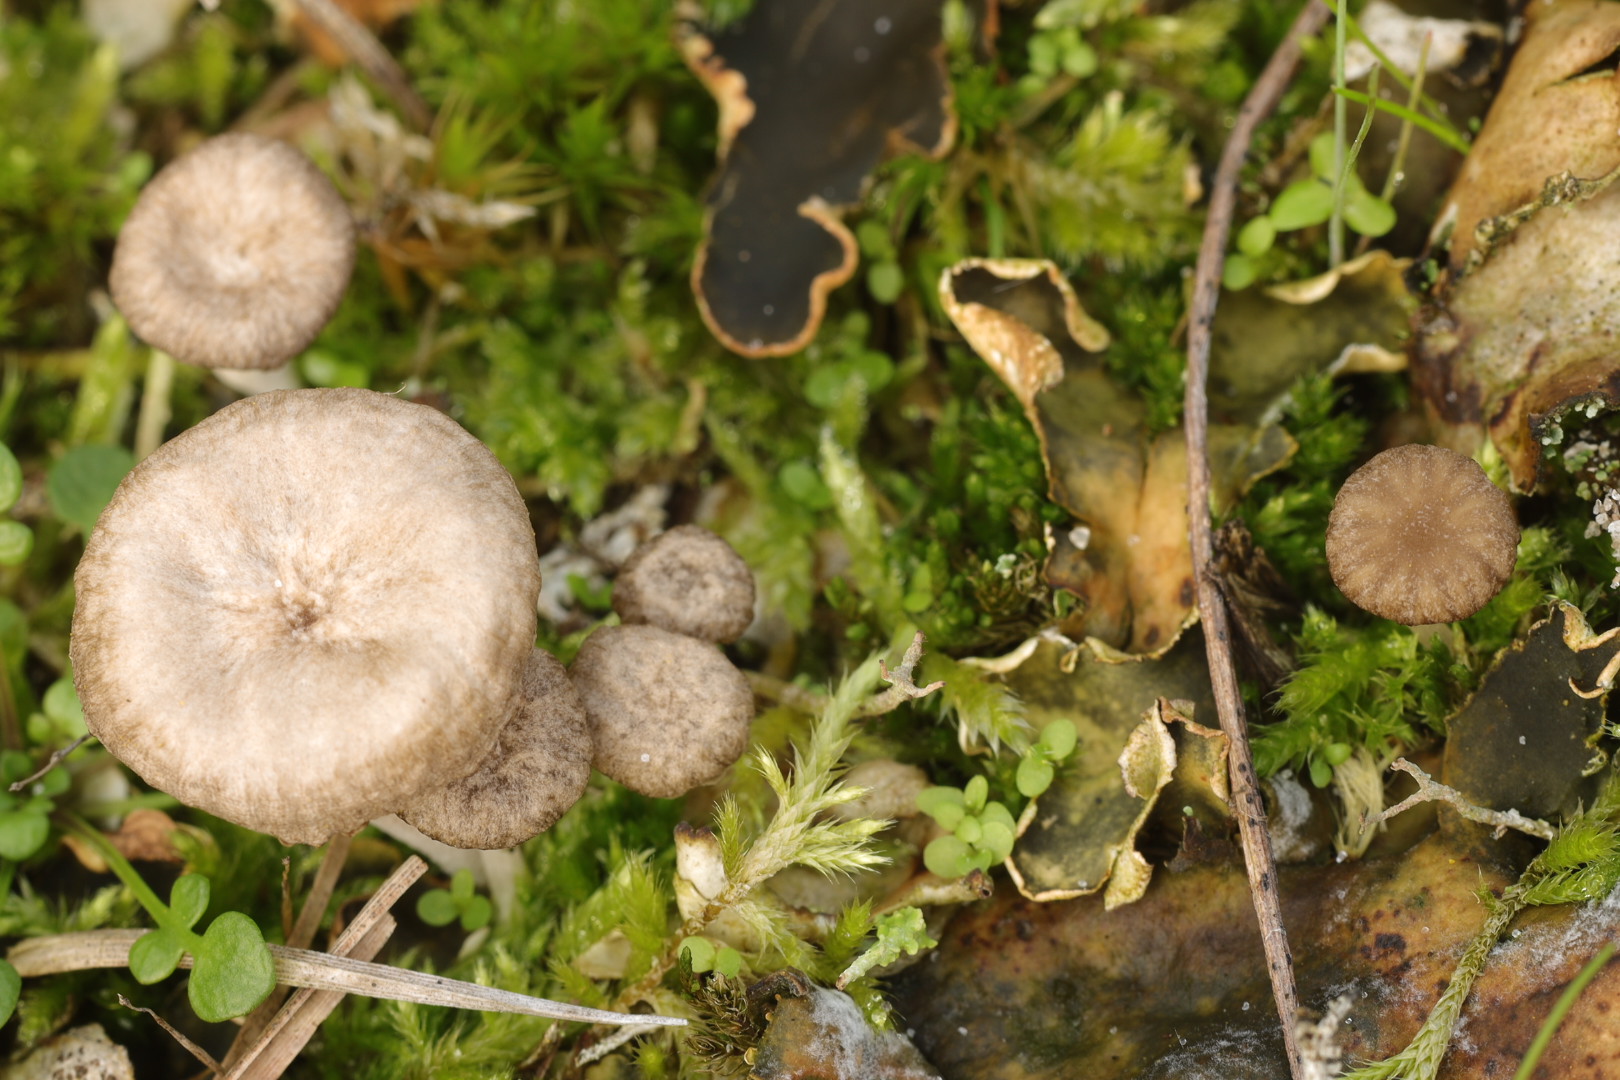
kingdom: Fungi
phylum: Basidiomycota
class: Agaricomycetes
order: Agaricales
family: Hygrophoraceae
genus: Arrhenia
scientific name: Arrhenia peltigerina
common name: skjoldlav-fontænehat
